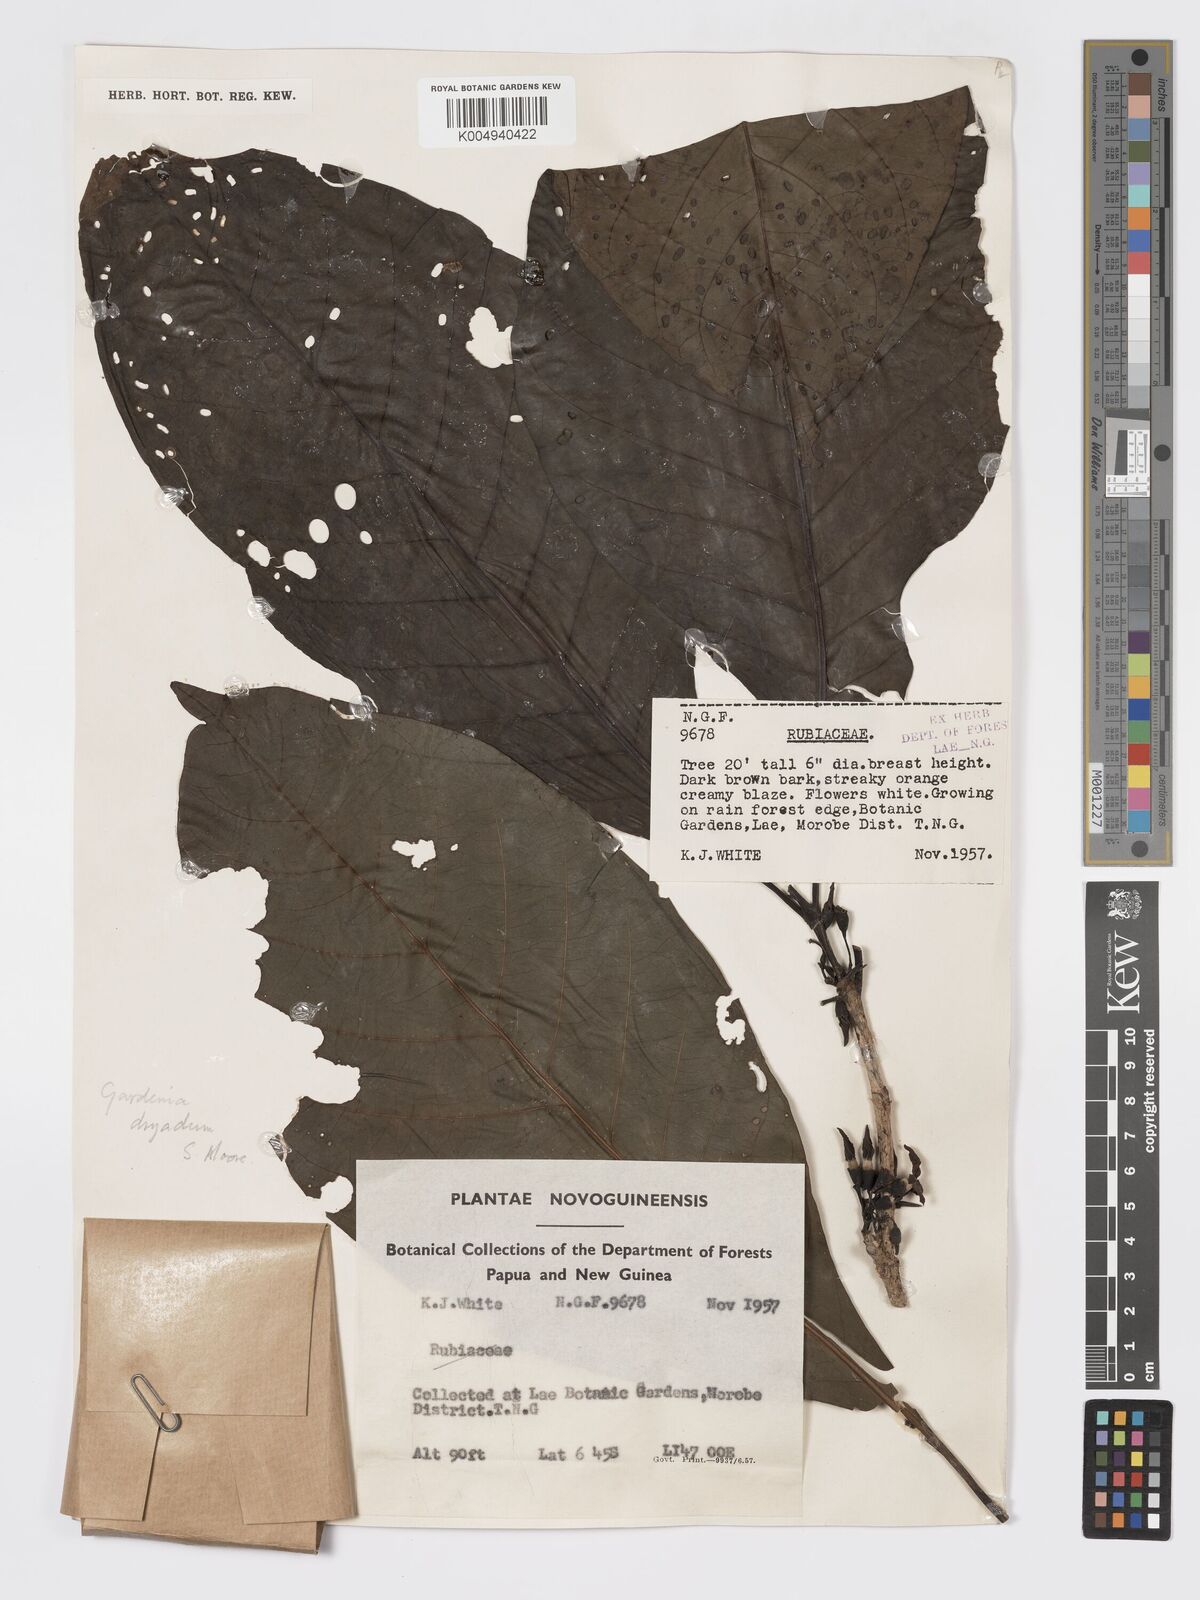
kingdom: Plantae
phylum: Tracheophyta
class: Magnoliopsida
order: Gentianales
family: Rubiaceae
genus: Atractocarpus
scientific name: Atractocarpus macarthurii
